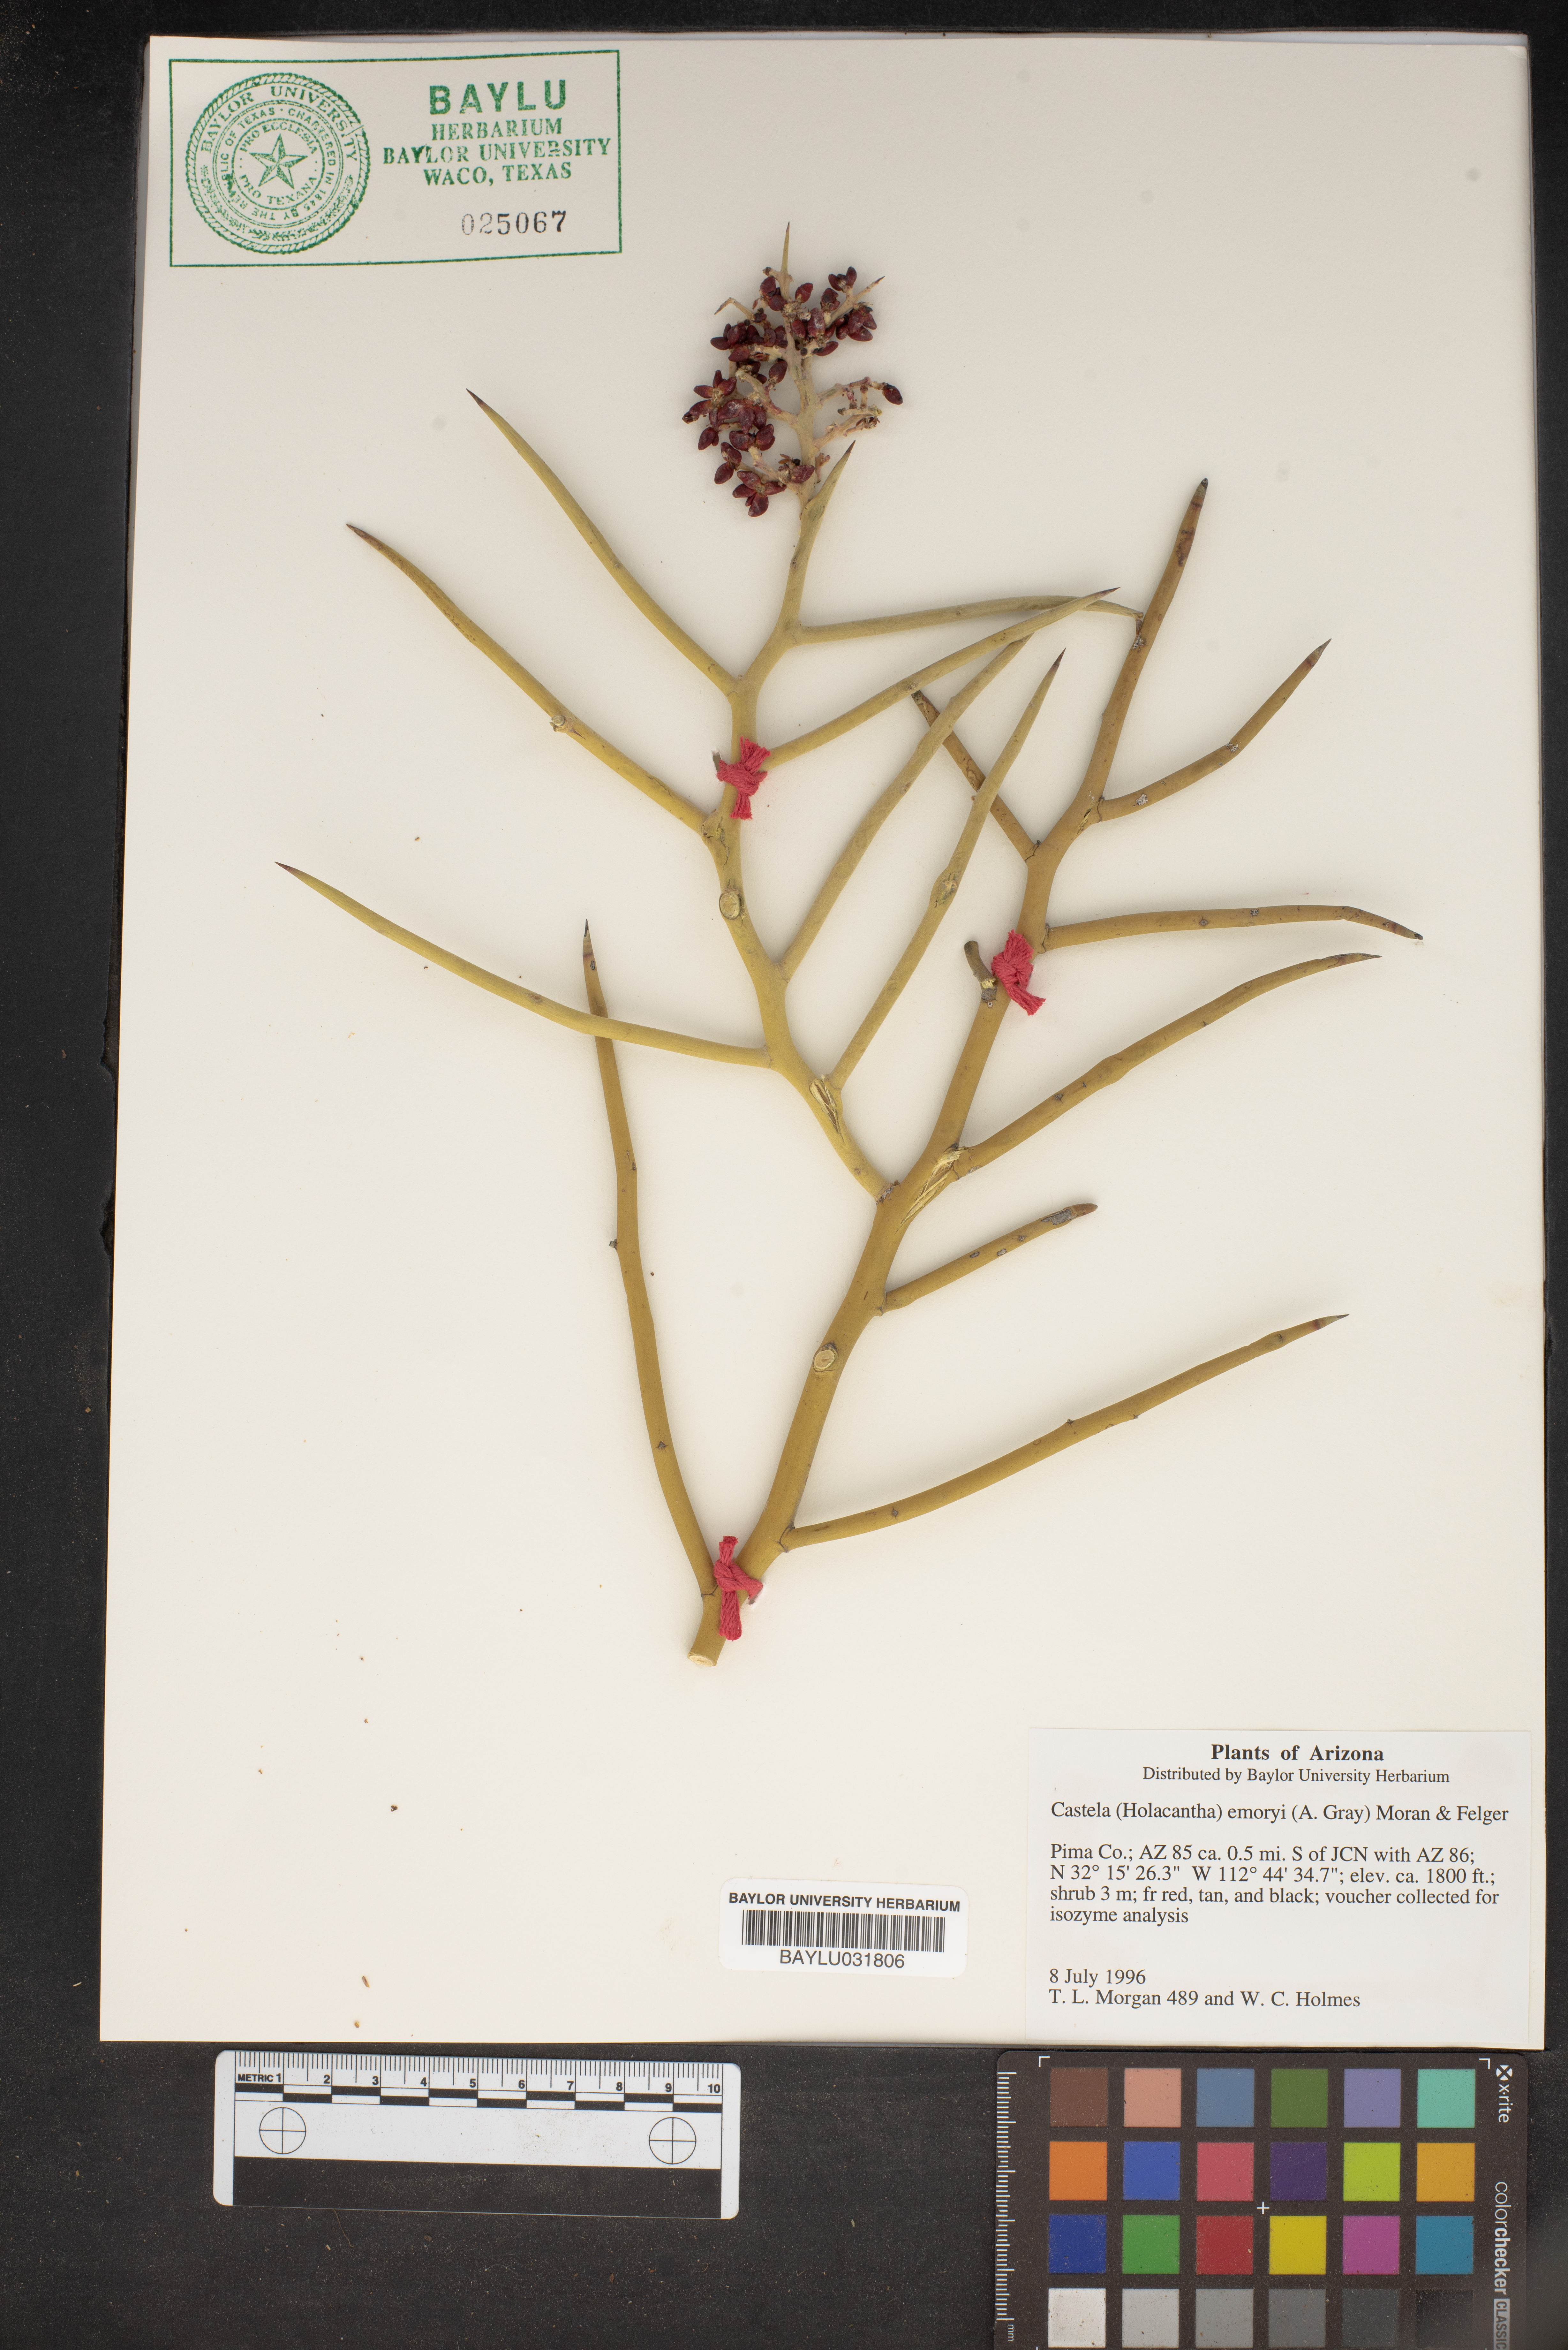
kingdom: Plantae
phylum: Tracheophyta
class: Magnoliopsida
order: Sapindales
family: Simaroubaceae
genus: Holacantha
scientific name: Holacantha emoryi
